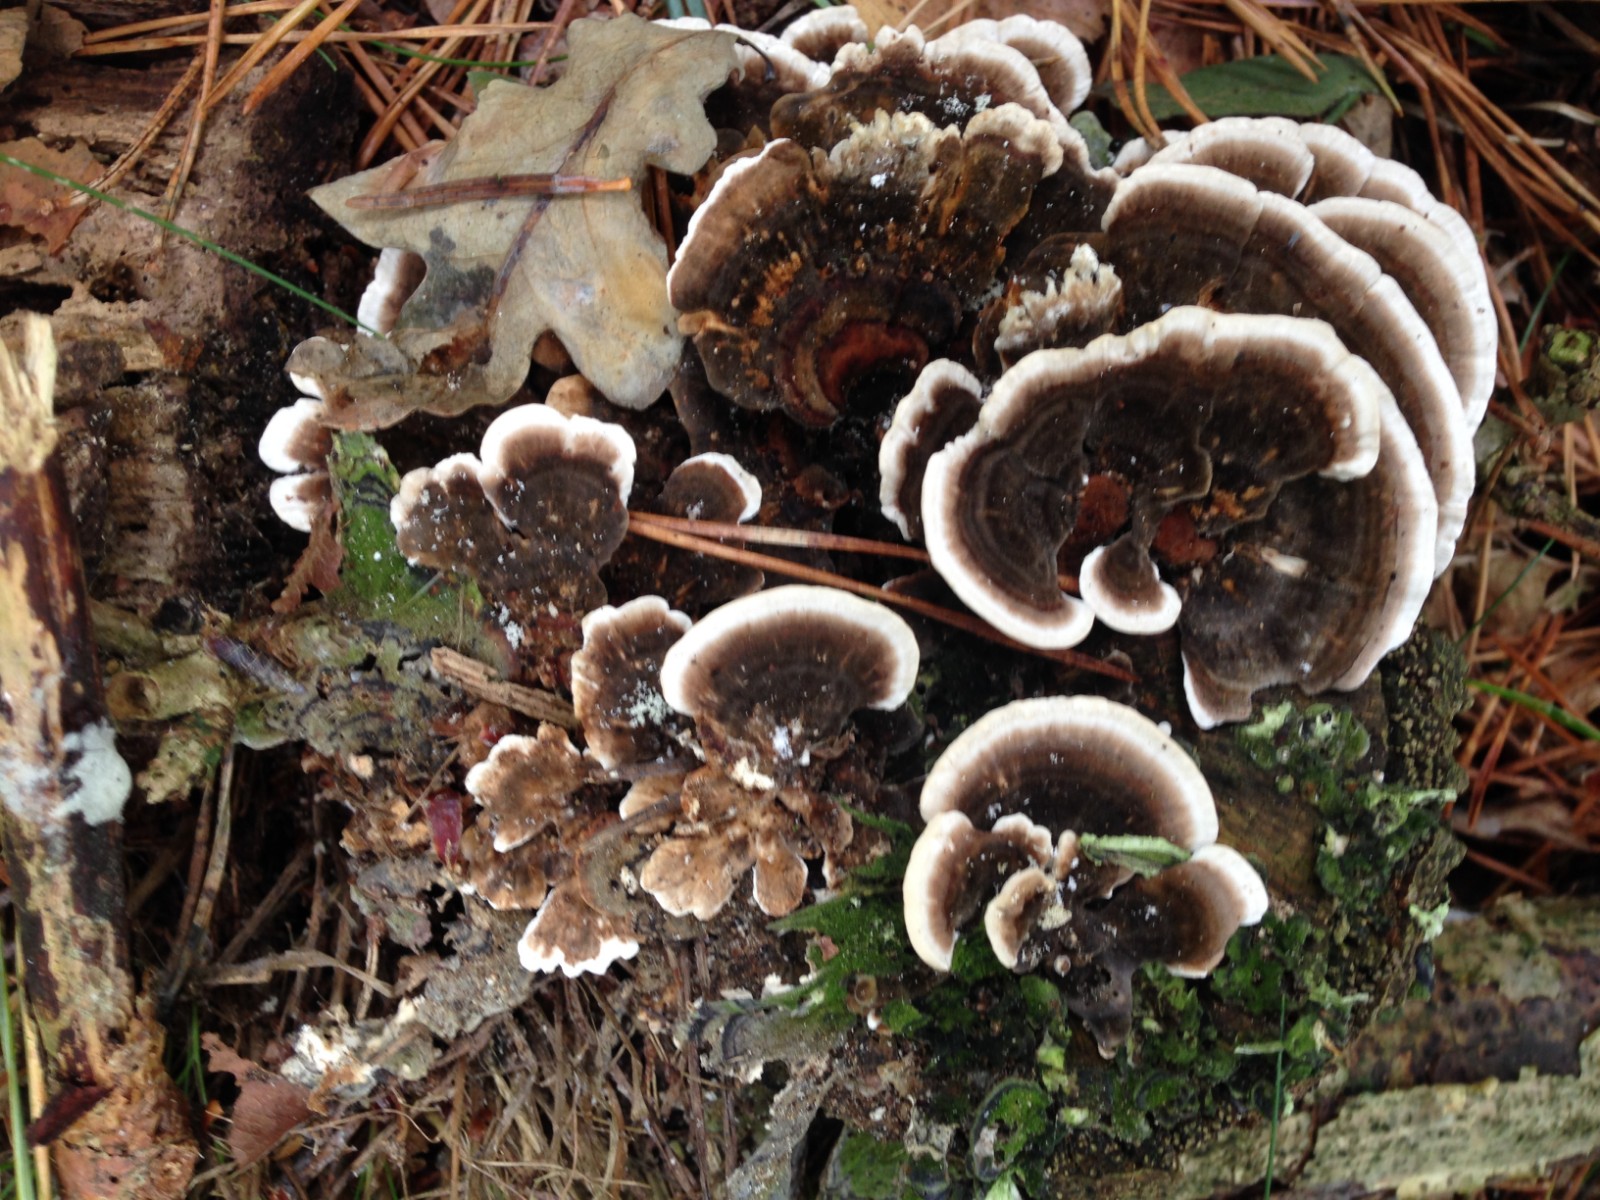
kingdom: Fungi
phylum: Basidiomycota
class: Agaricomycetes
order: Polyporales
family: Polyporaceae
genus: Trametes
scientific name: Trametes versicolor
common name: broget læderporesvamp
